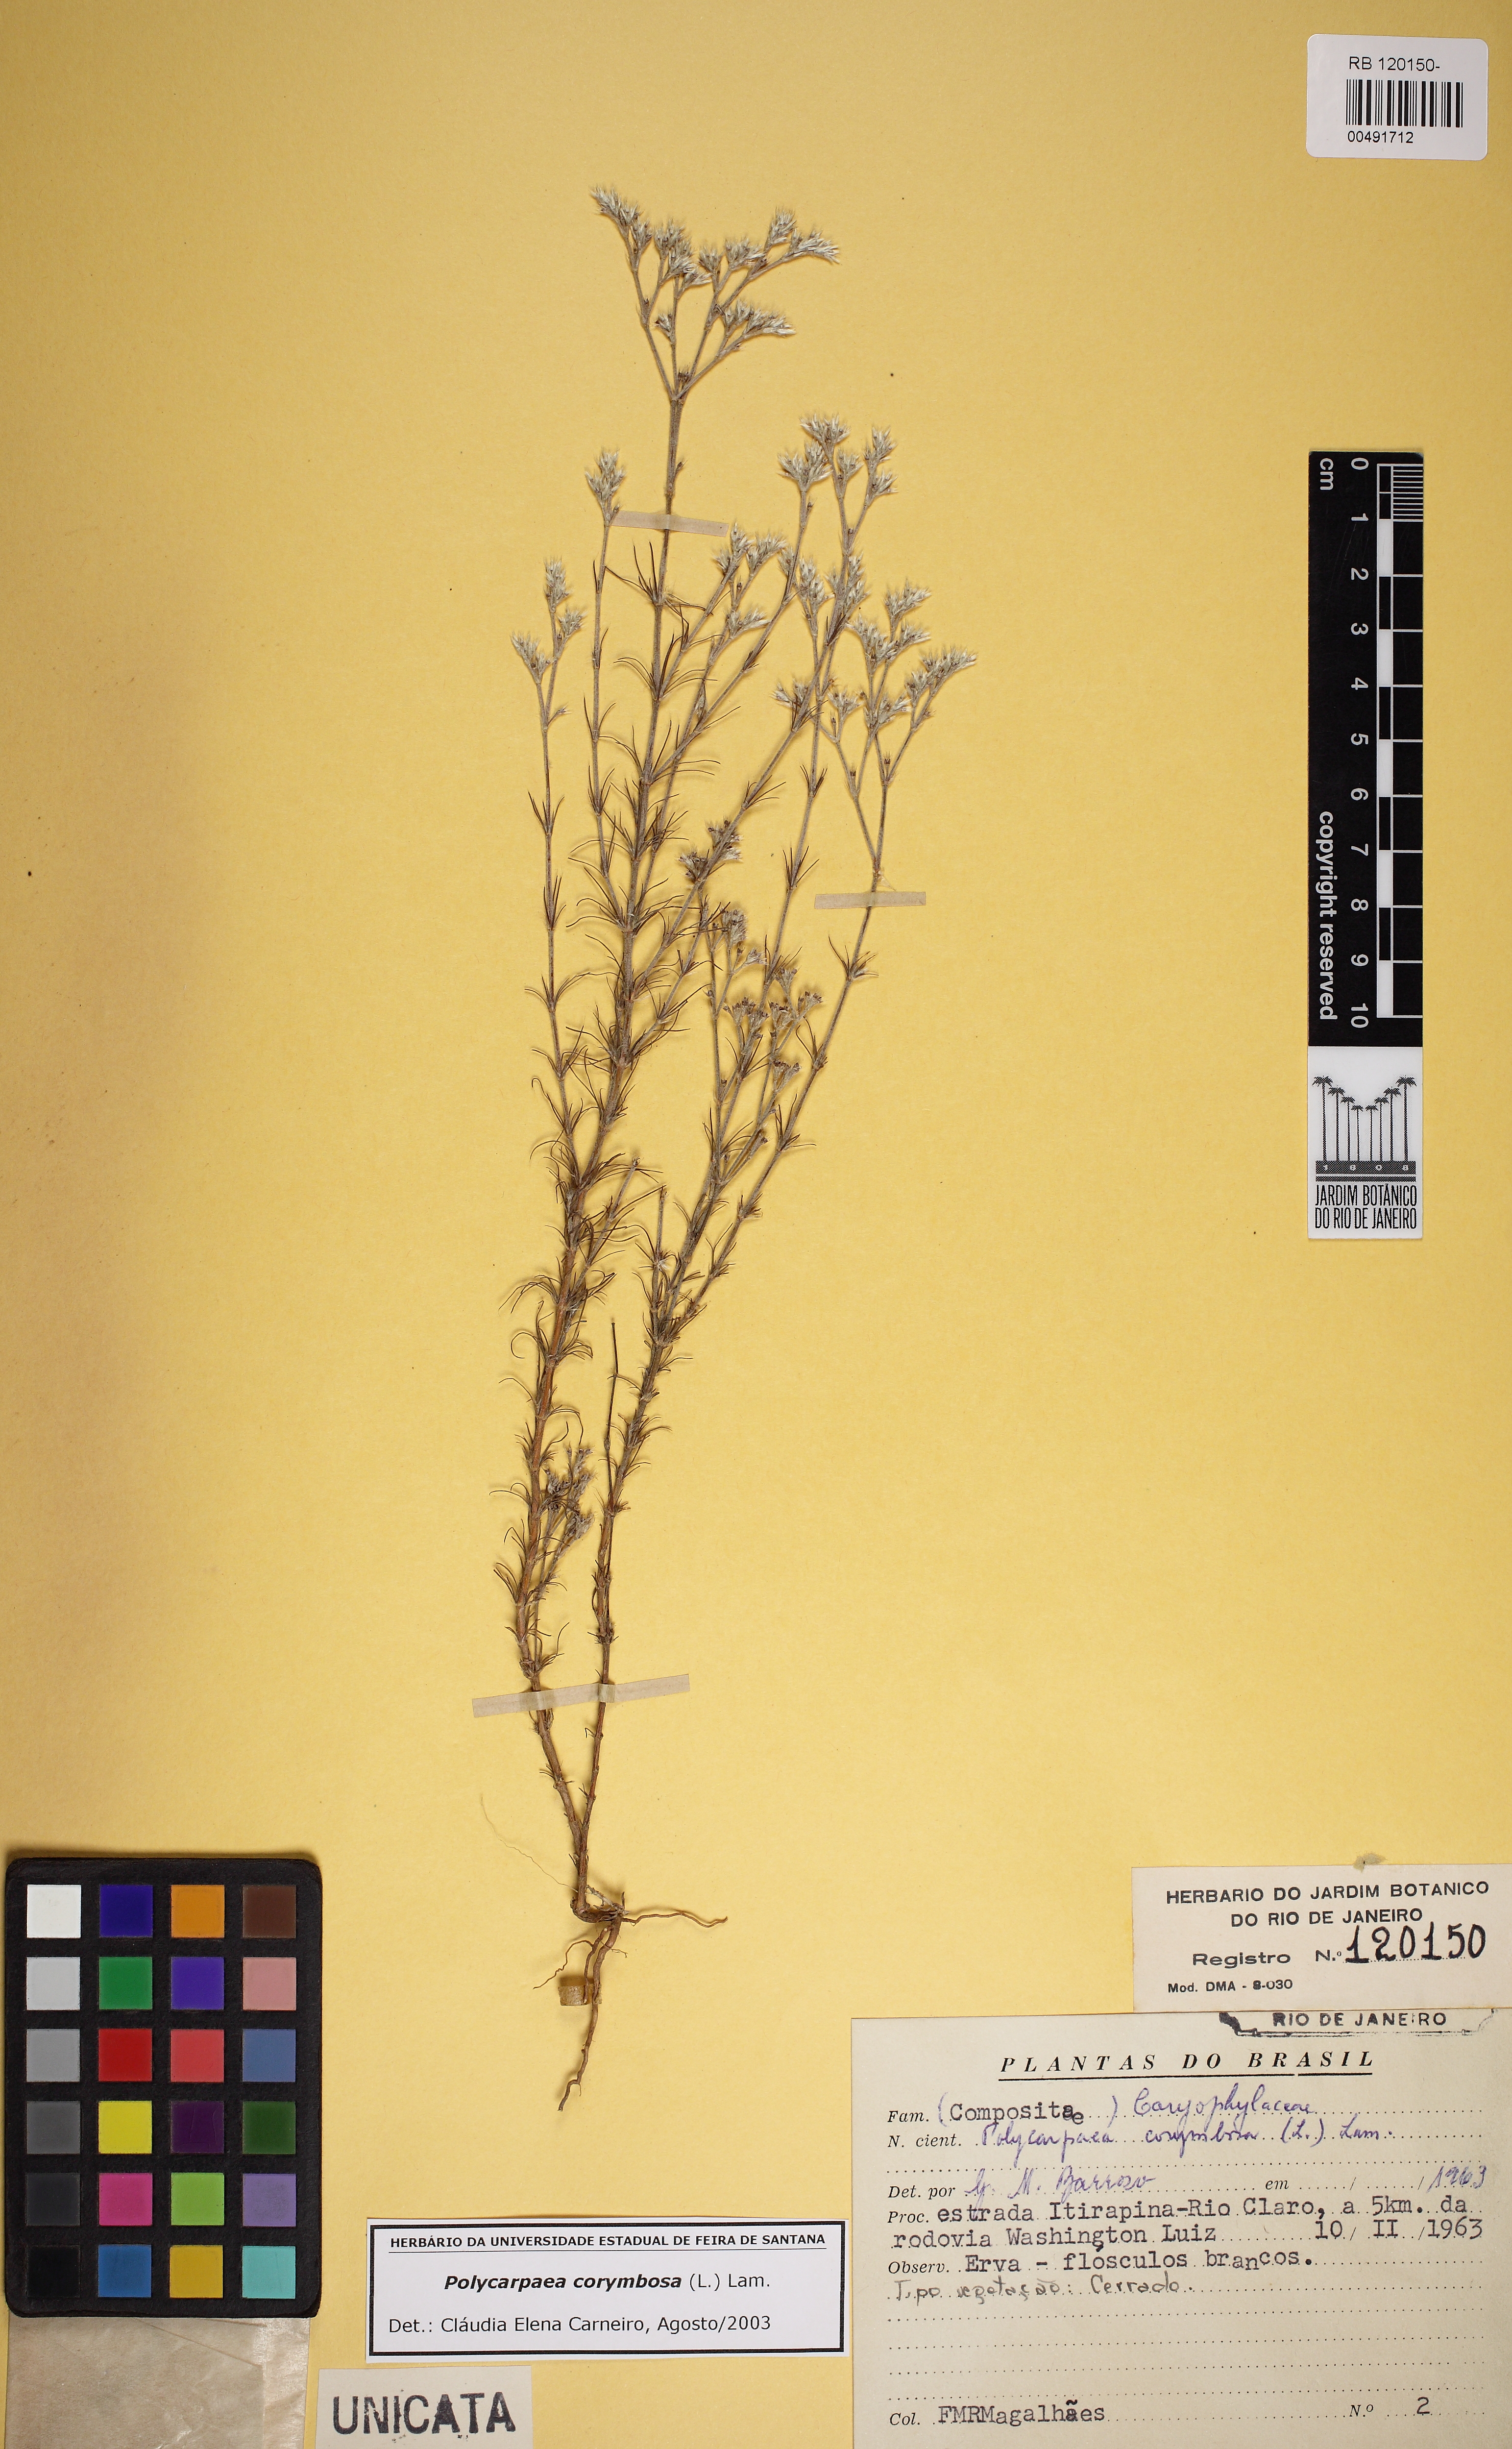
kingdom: Plantae
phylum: Tracheophyta
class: Magnoliopsida
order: Caryophyllales
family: Caryophyllaceae
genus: Polycarpaea
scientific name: Polycarpaea corymbosa
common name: Oldman's cap
